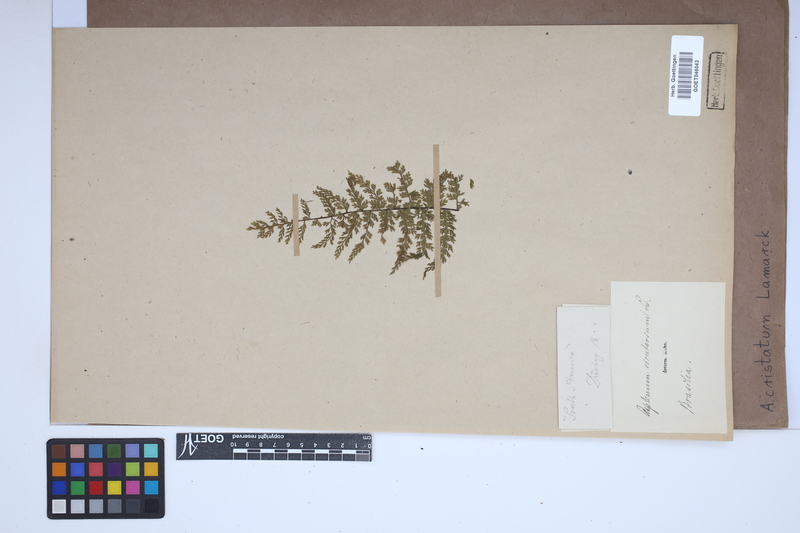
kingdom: Plantae
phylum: Tracheophyta
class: Polypodiopsida
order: Polypodiales
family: Aspleniaceae
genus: Asplenium
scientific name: Asplenium cristatum
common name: Parsley spleenwort
